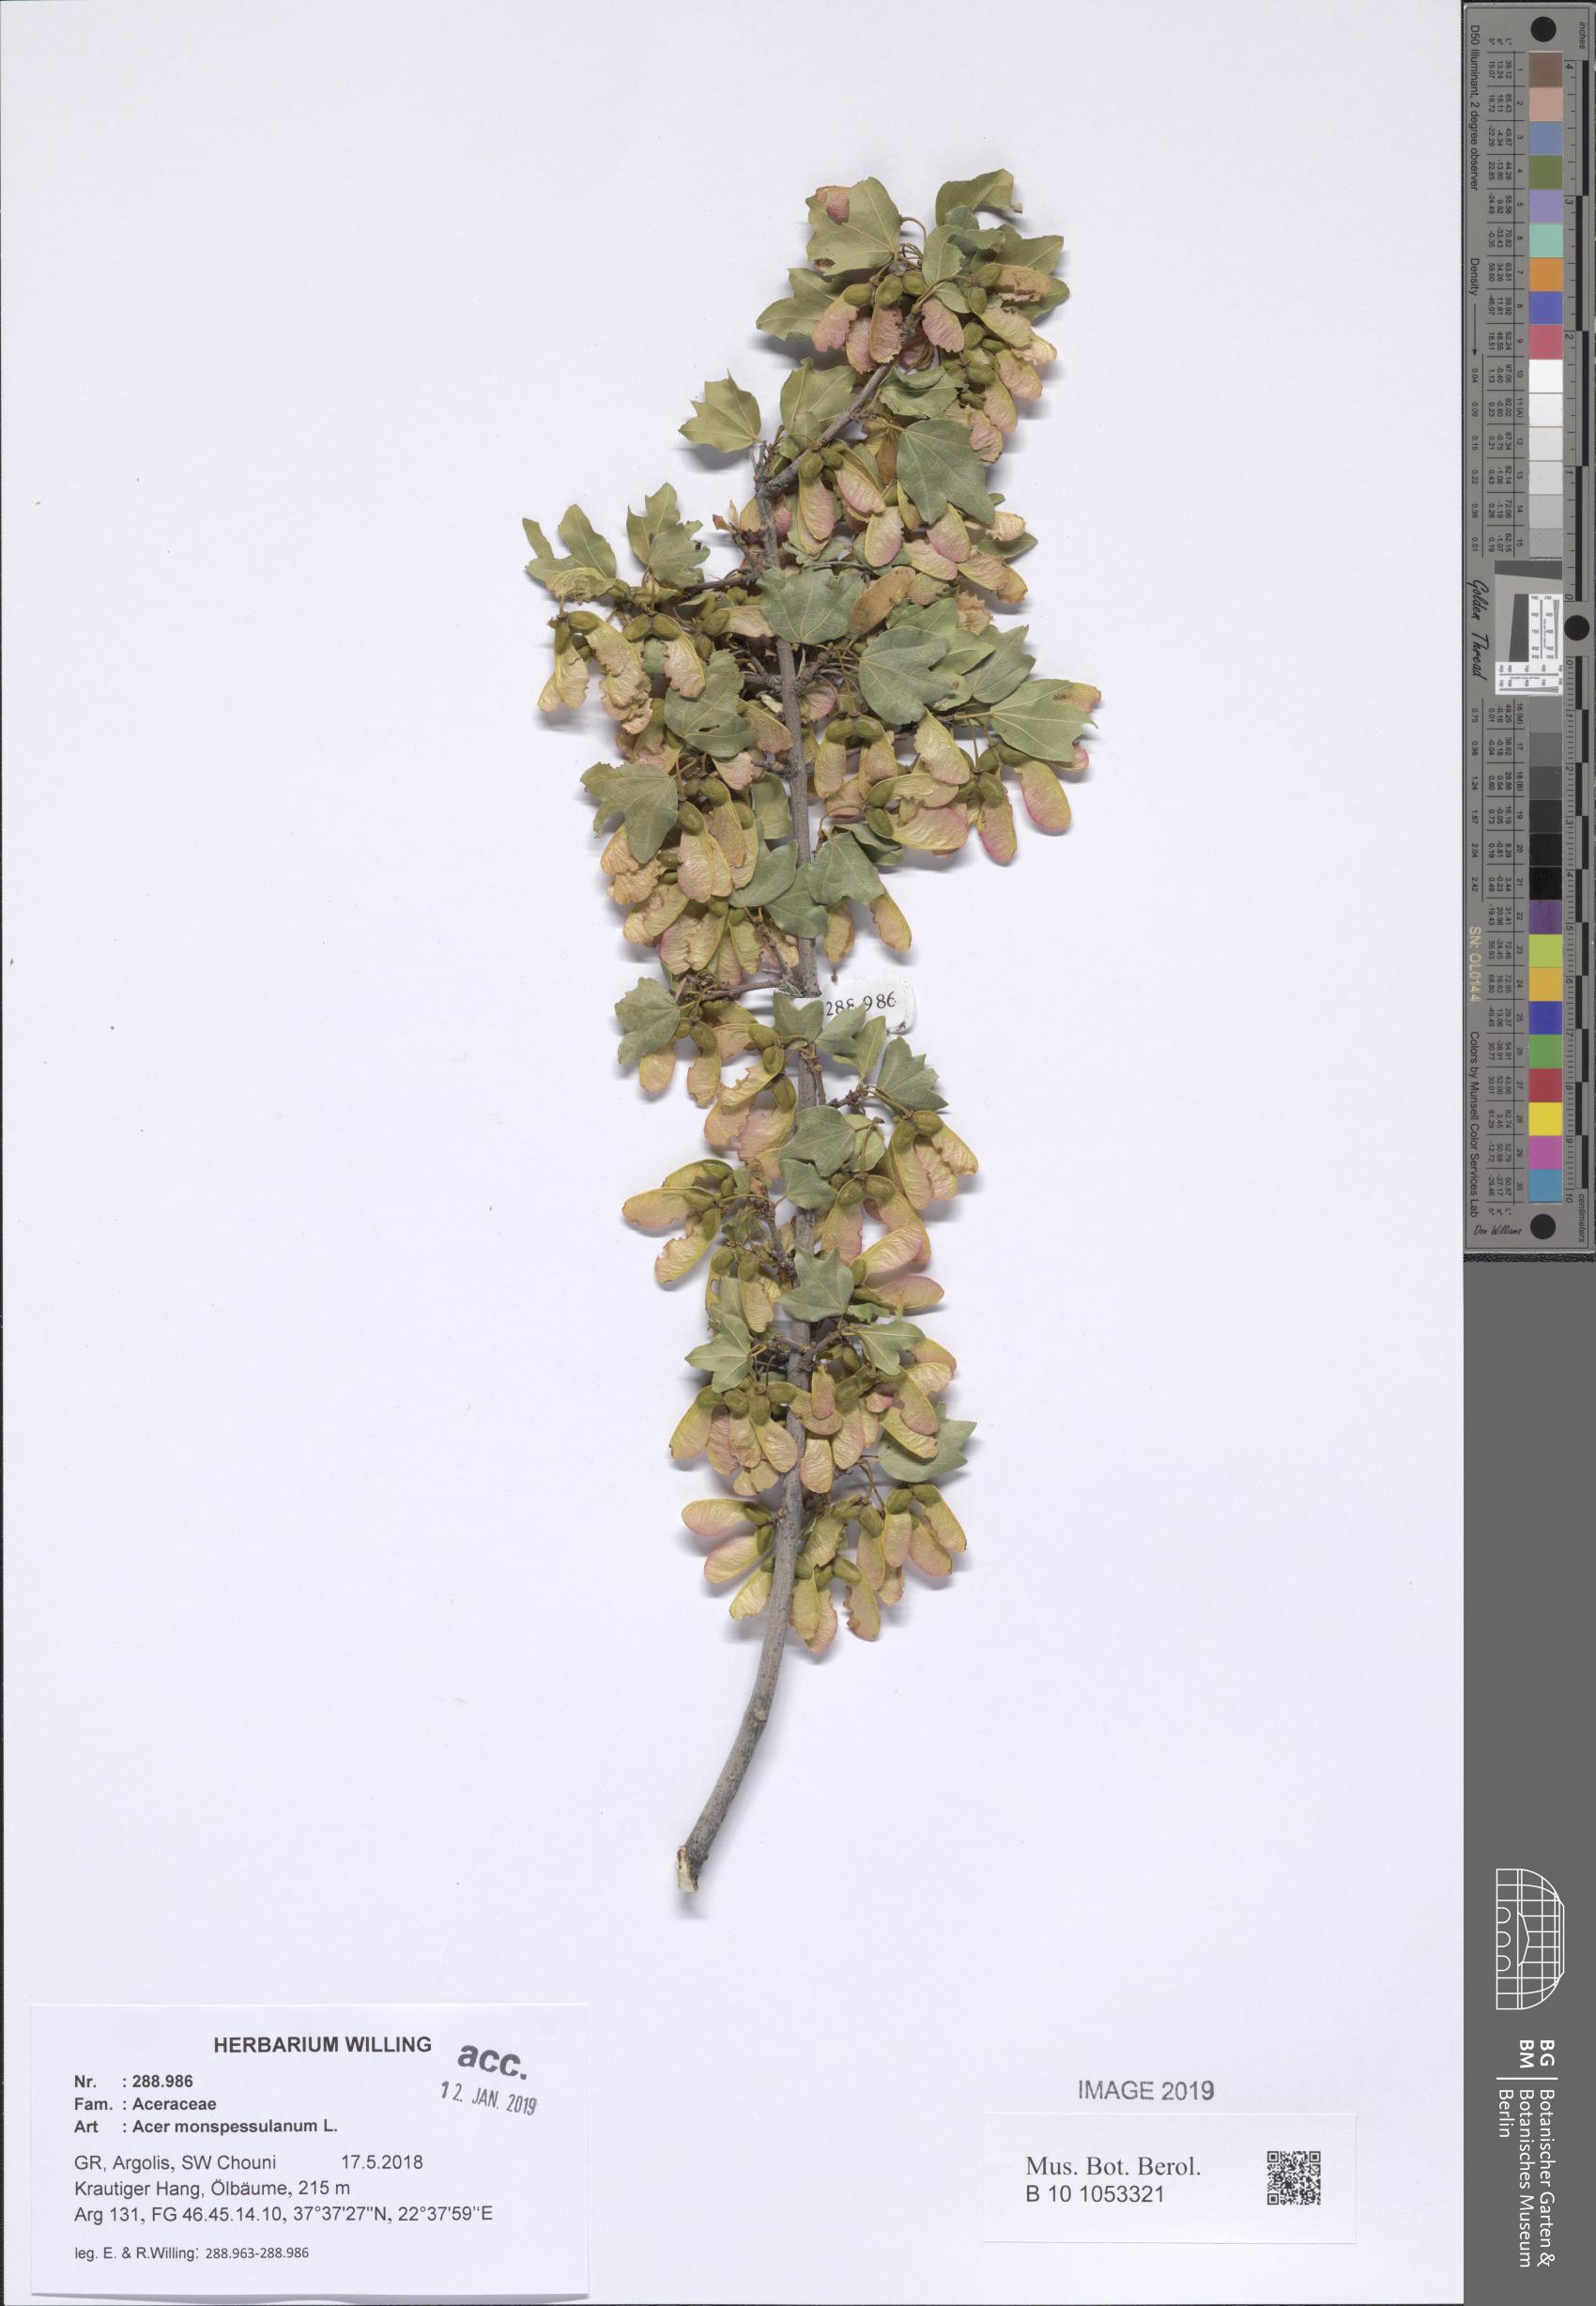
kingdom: Plantae
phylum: Tracheophyta
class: Magnoliopsida
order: Sapindales
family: Sapindaceae
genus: Acer
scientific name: Acer monspessulanum
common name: Montpellier maple
